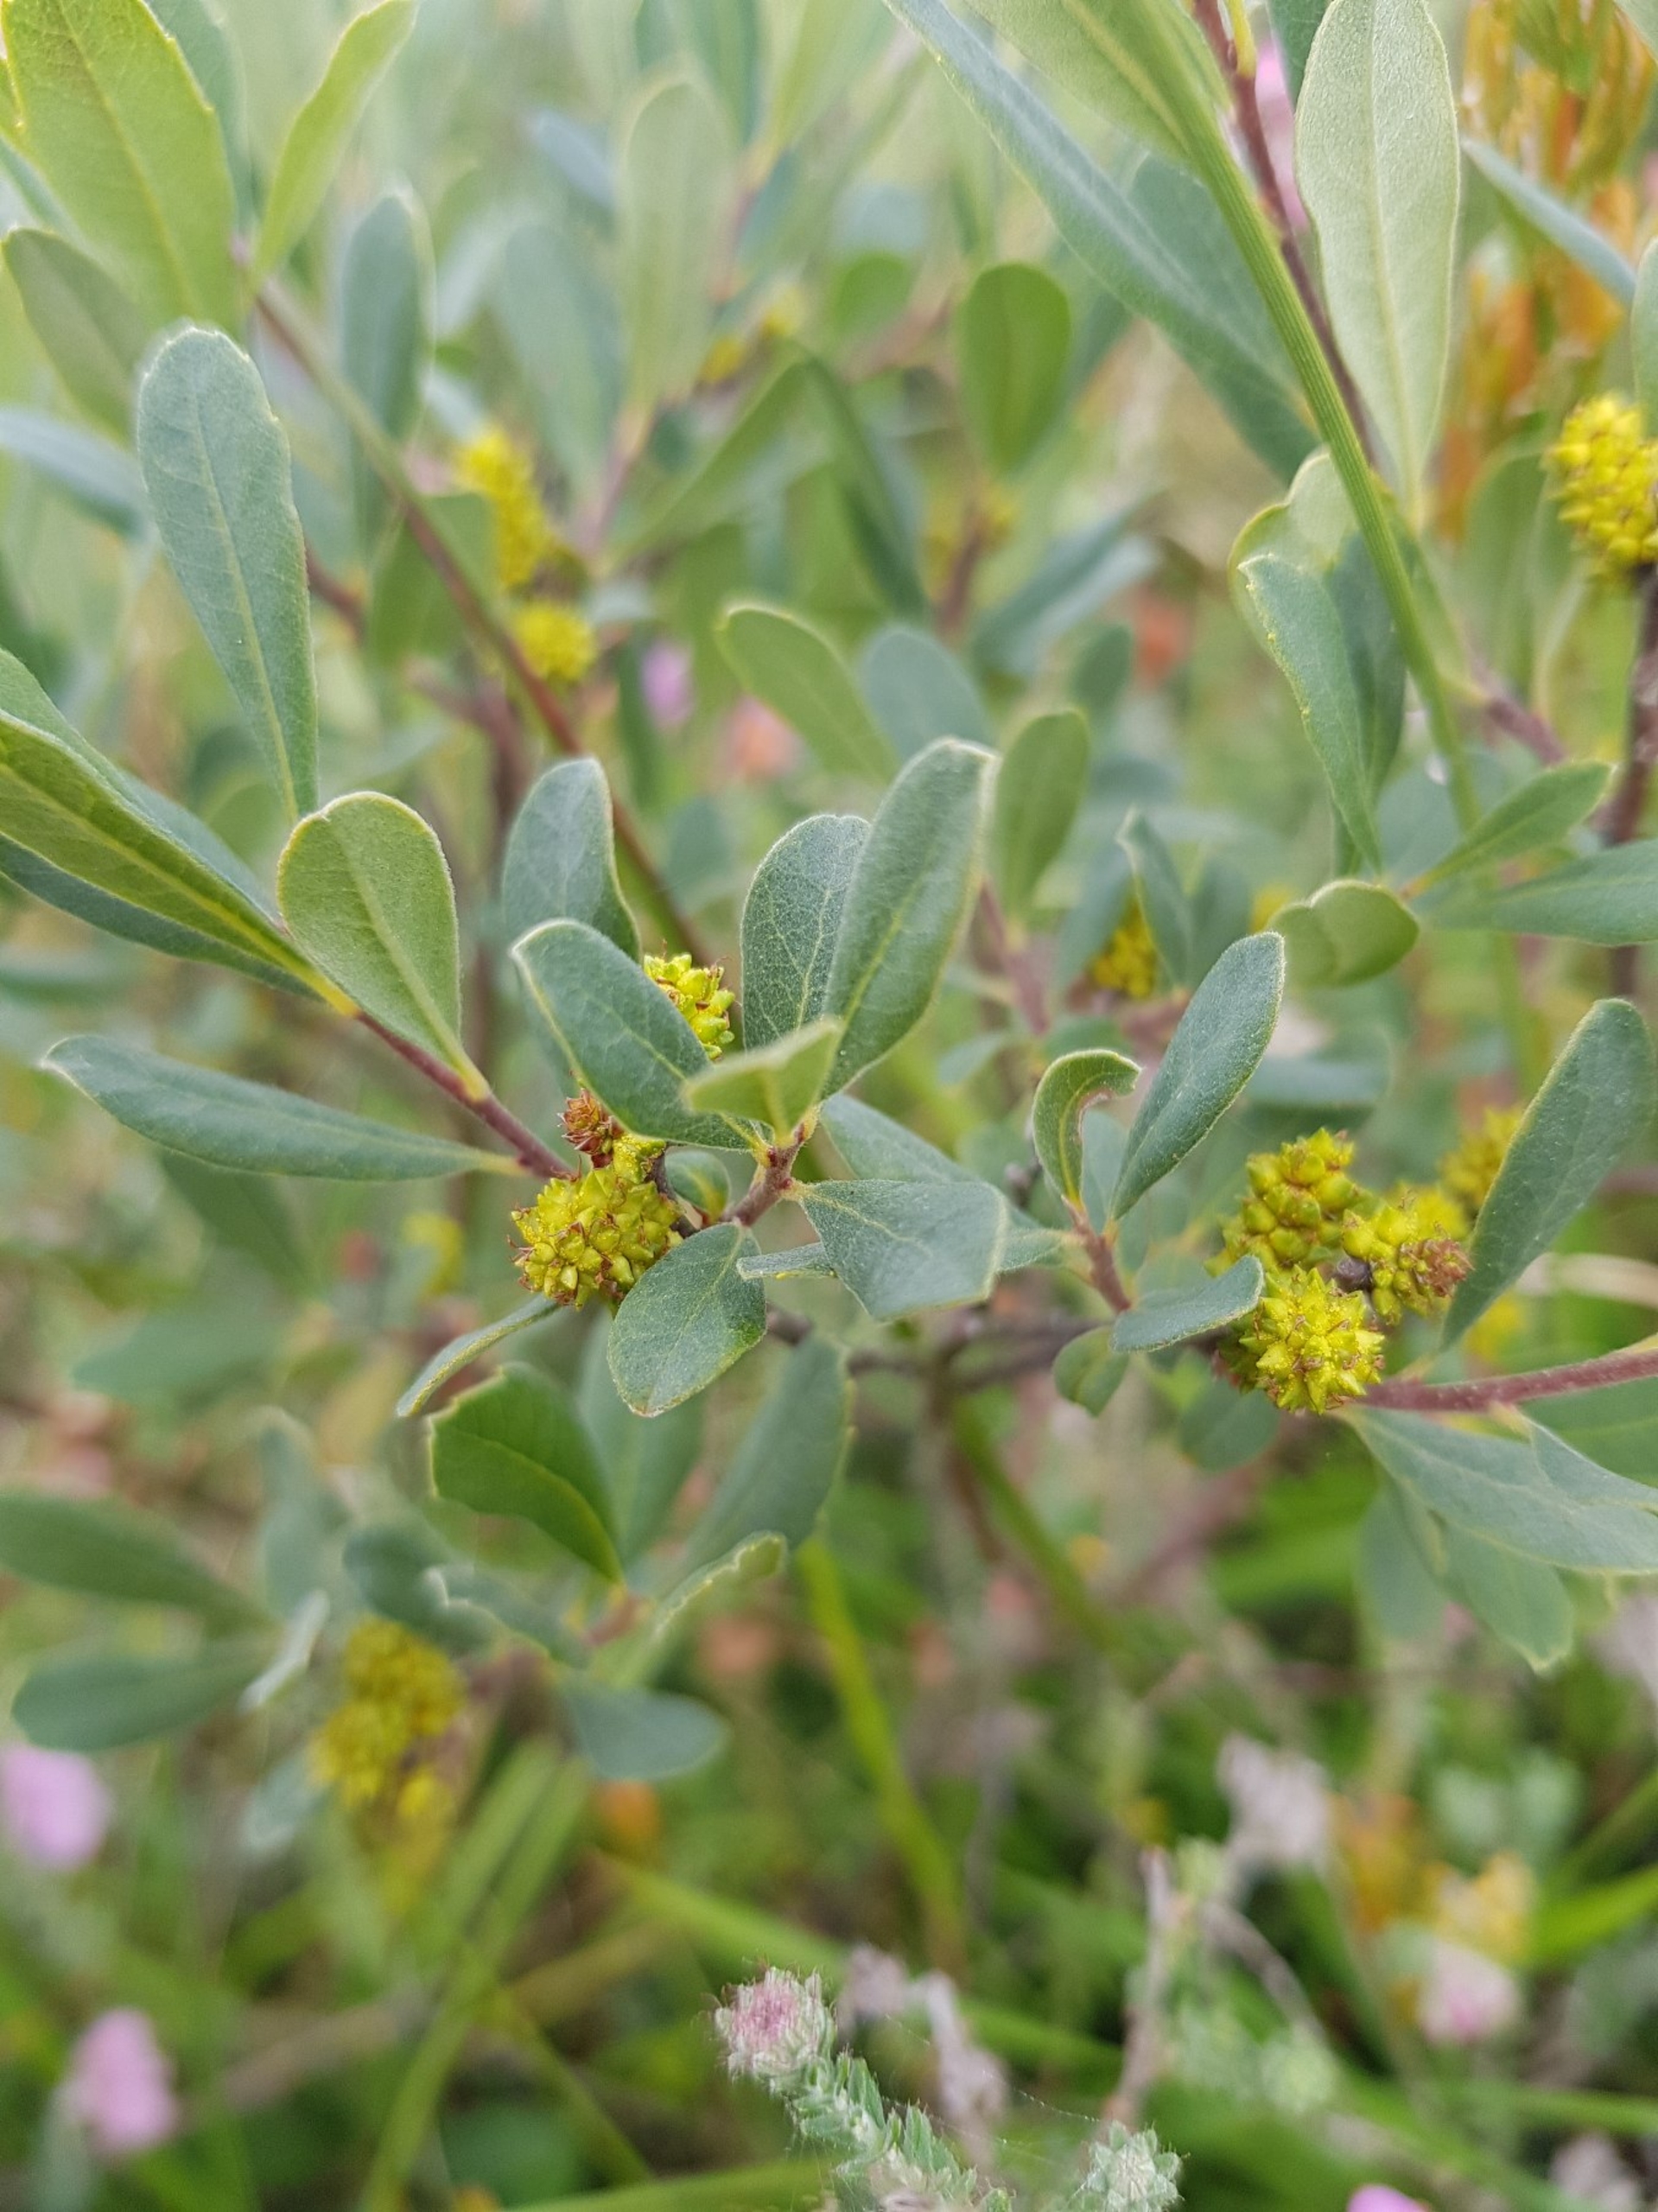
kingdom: Plantae
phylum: Tracheophyta
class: Magnoliopsida
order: Fagales
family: Myricaceae
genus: Myrica
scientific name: Myrica gale
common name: Pors
